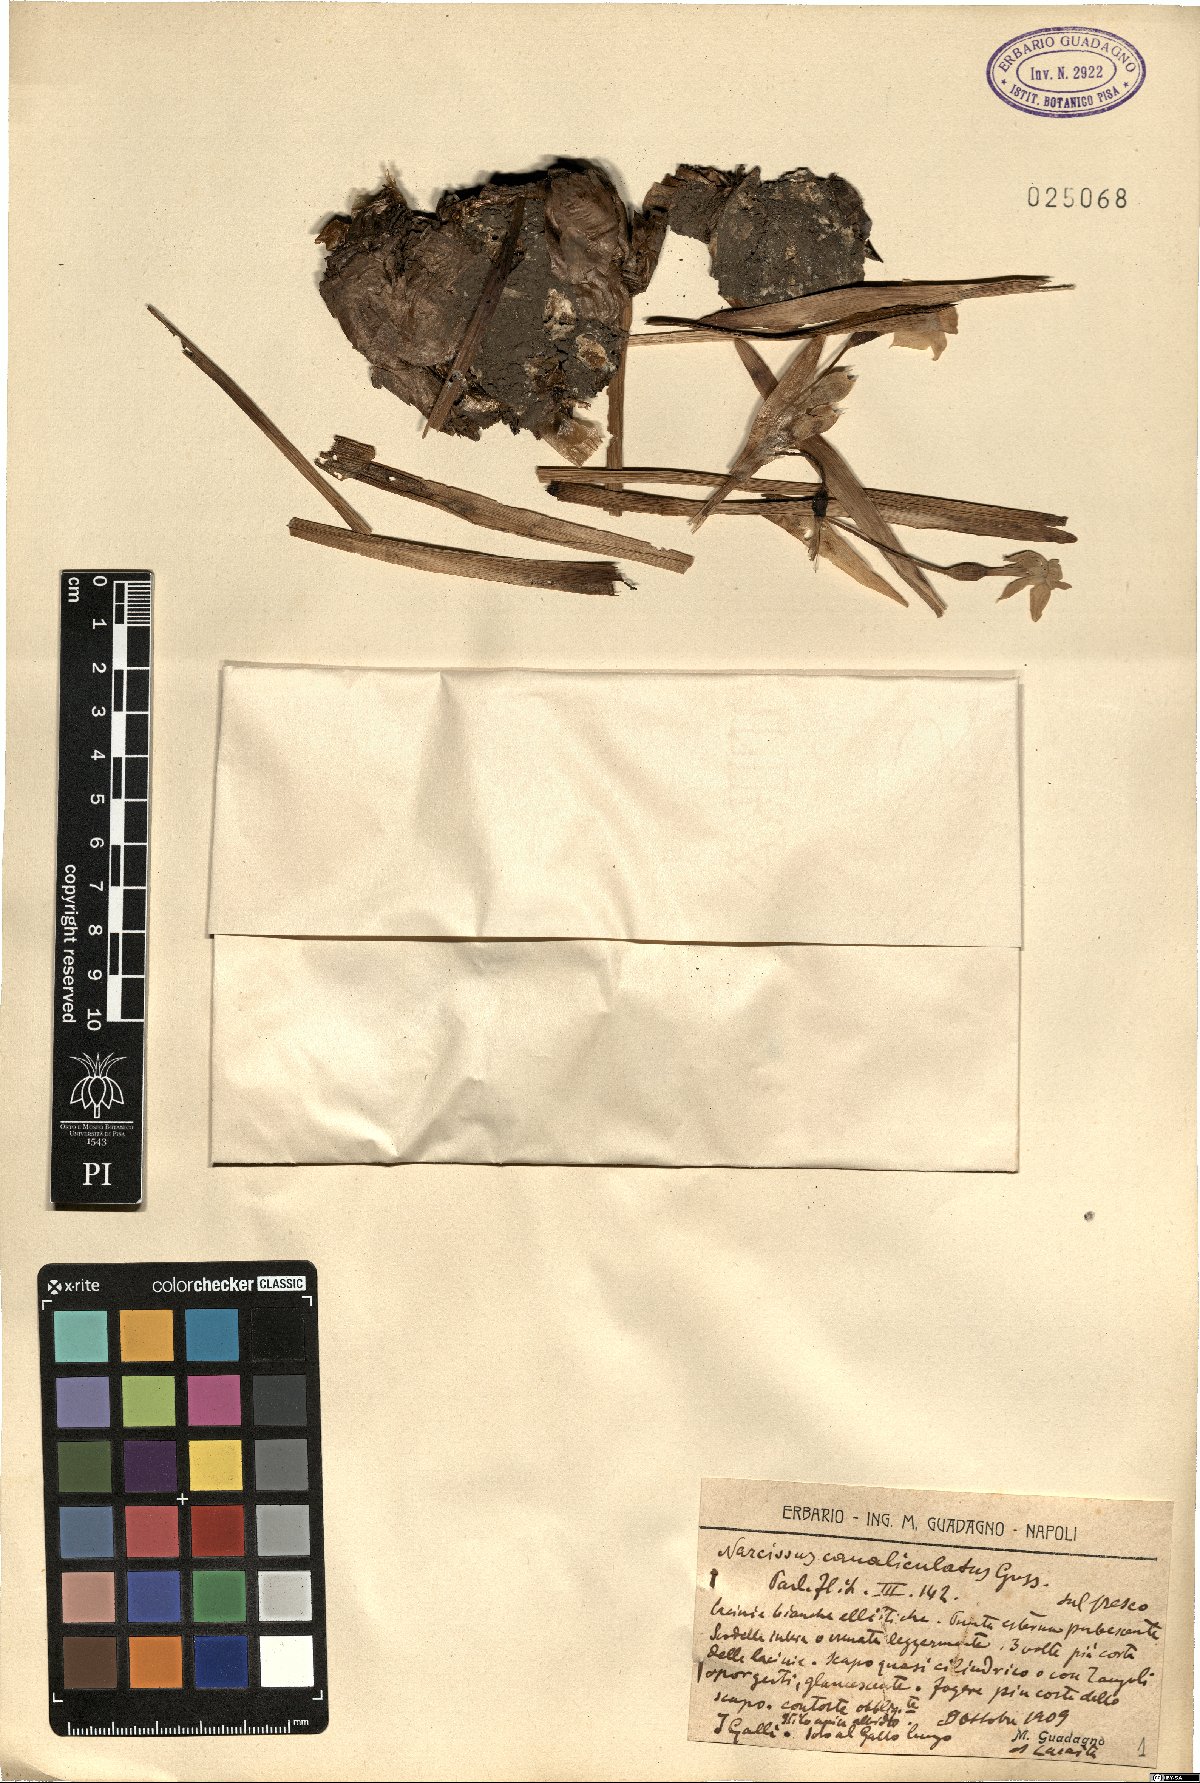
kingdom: Plantae
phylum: Tracheophyta
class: Liliopsida
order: Asparagales
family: Amaryllidaceae
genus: Narcissus
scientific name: Narcissus tazetta
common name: Bunch-flowered daffodil
